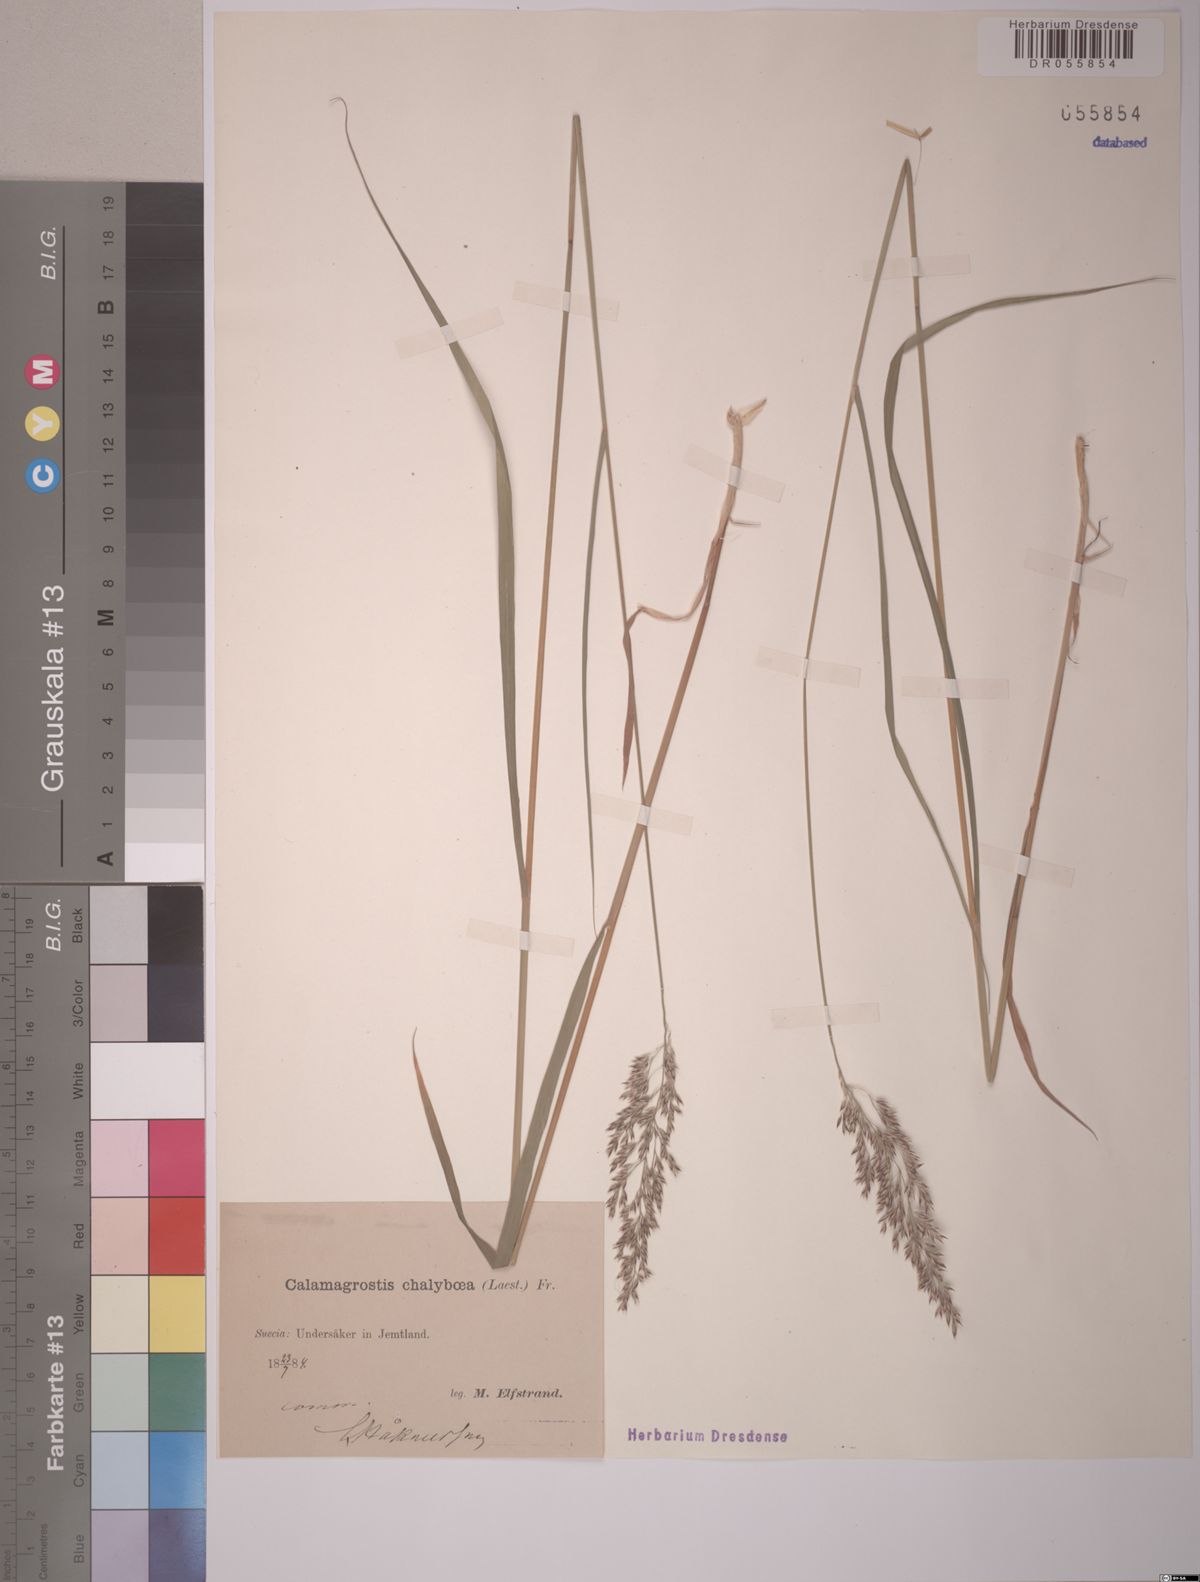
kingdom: Plantae
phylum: Tracheophyta
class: Liliopsida
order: Poales
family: Poaceae
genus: Calamagrostis
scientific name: Calamagrostis chalybaea
